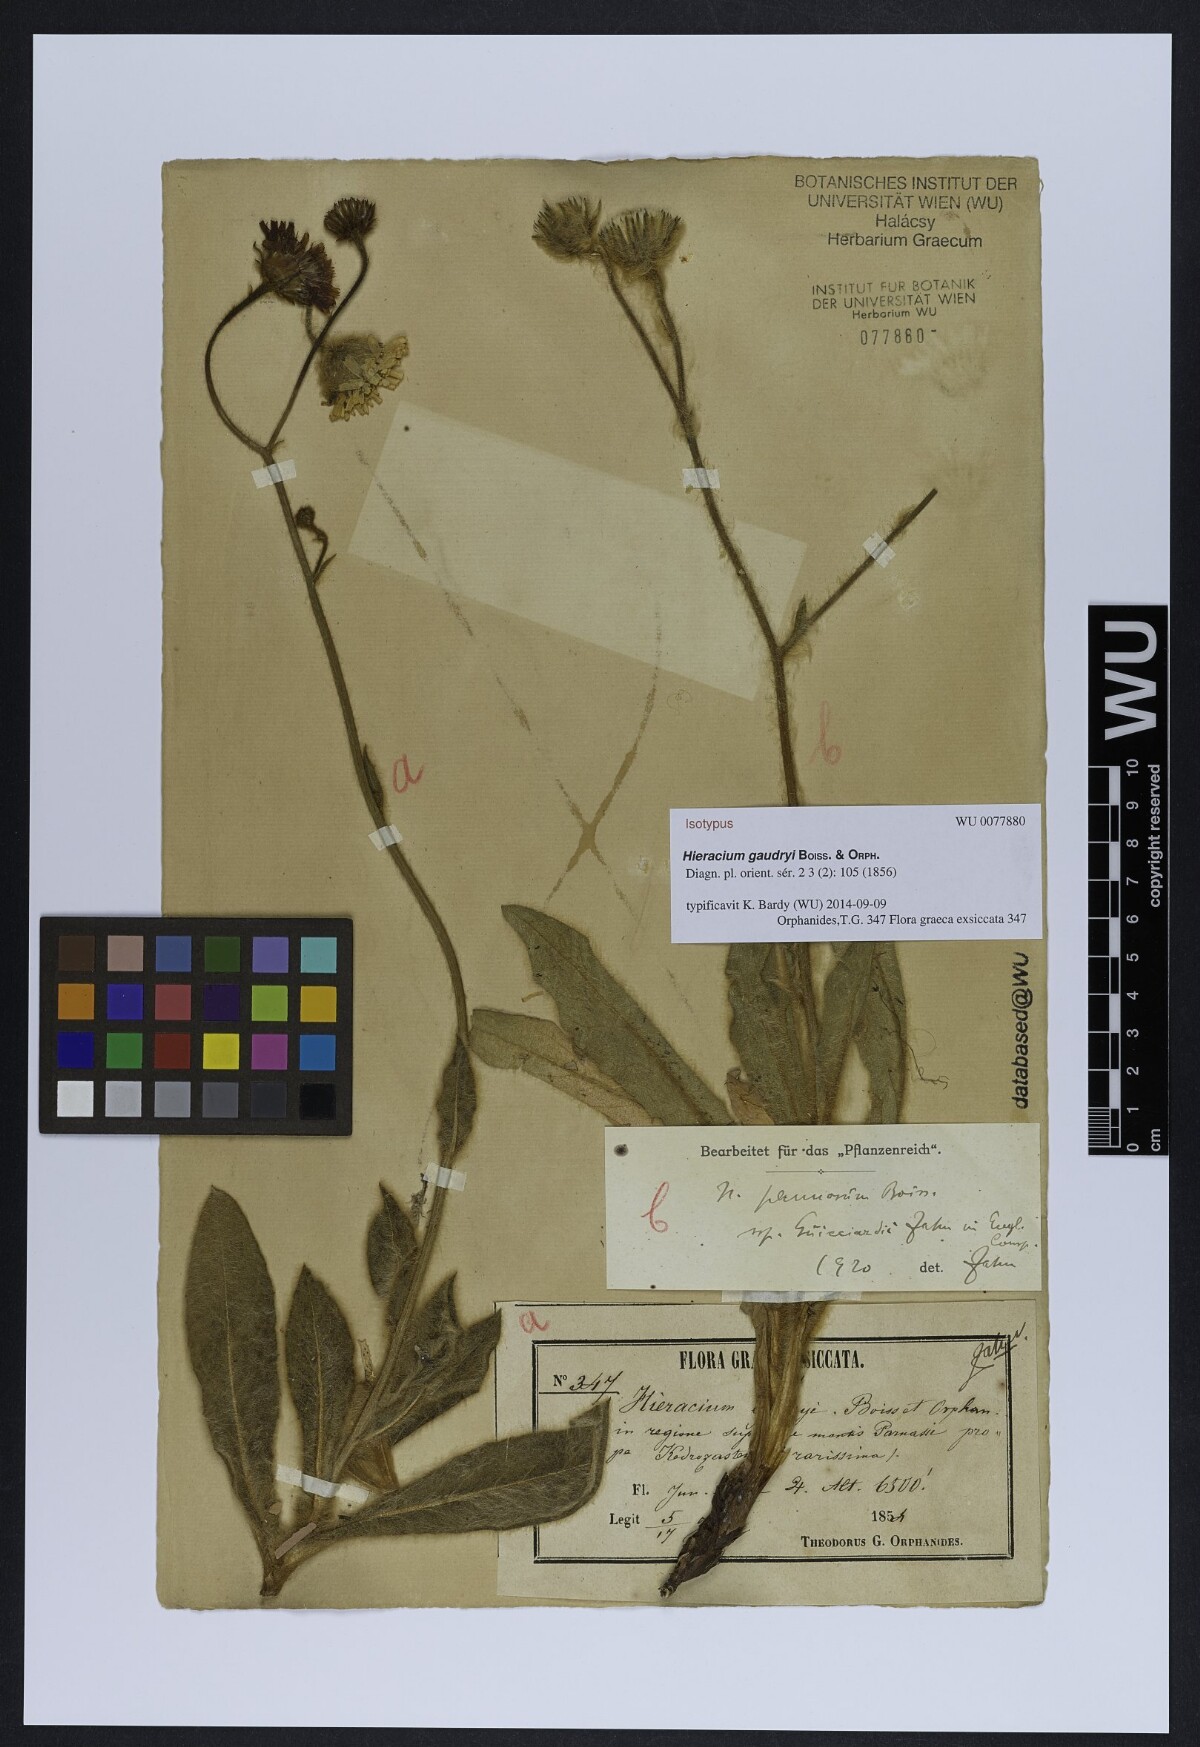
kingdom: Plantae
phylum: Tracheophyta
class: Magnoliopsida
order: Asterales
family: Asteraceae
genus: Hieracium
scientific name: Hieracium gaudryi
